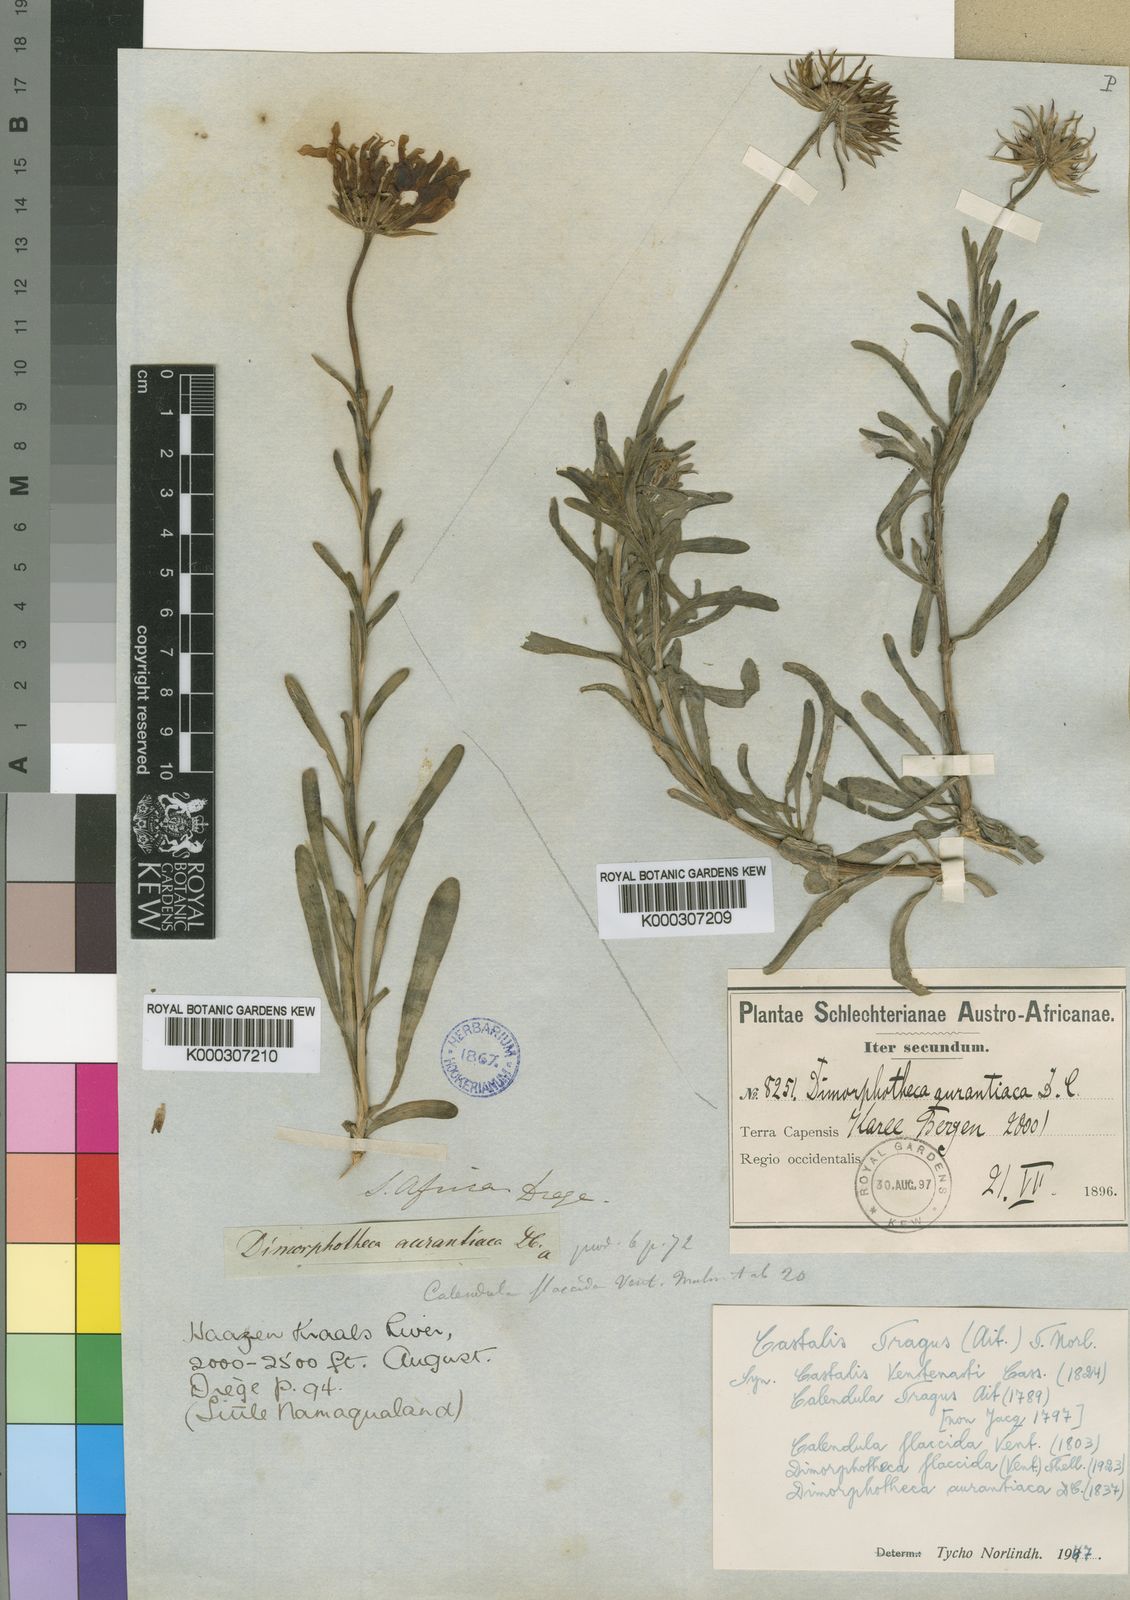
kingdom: Plantae
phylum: Tracheophyta
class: Magnoliopsida
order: Asterales
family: Asteraceae
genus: Dimorphotheca
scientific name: Dimorphotheca tragus
